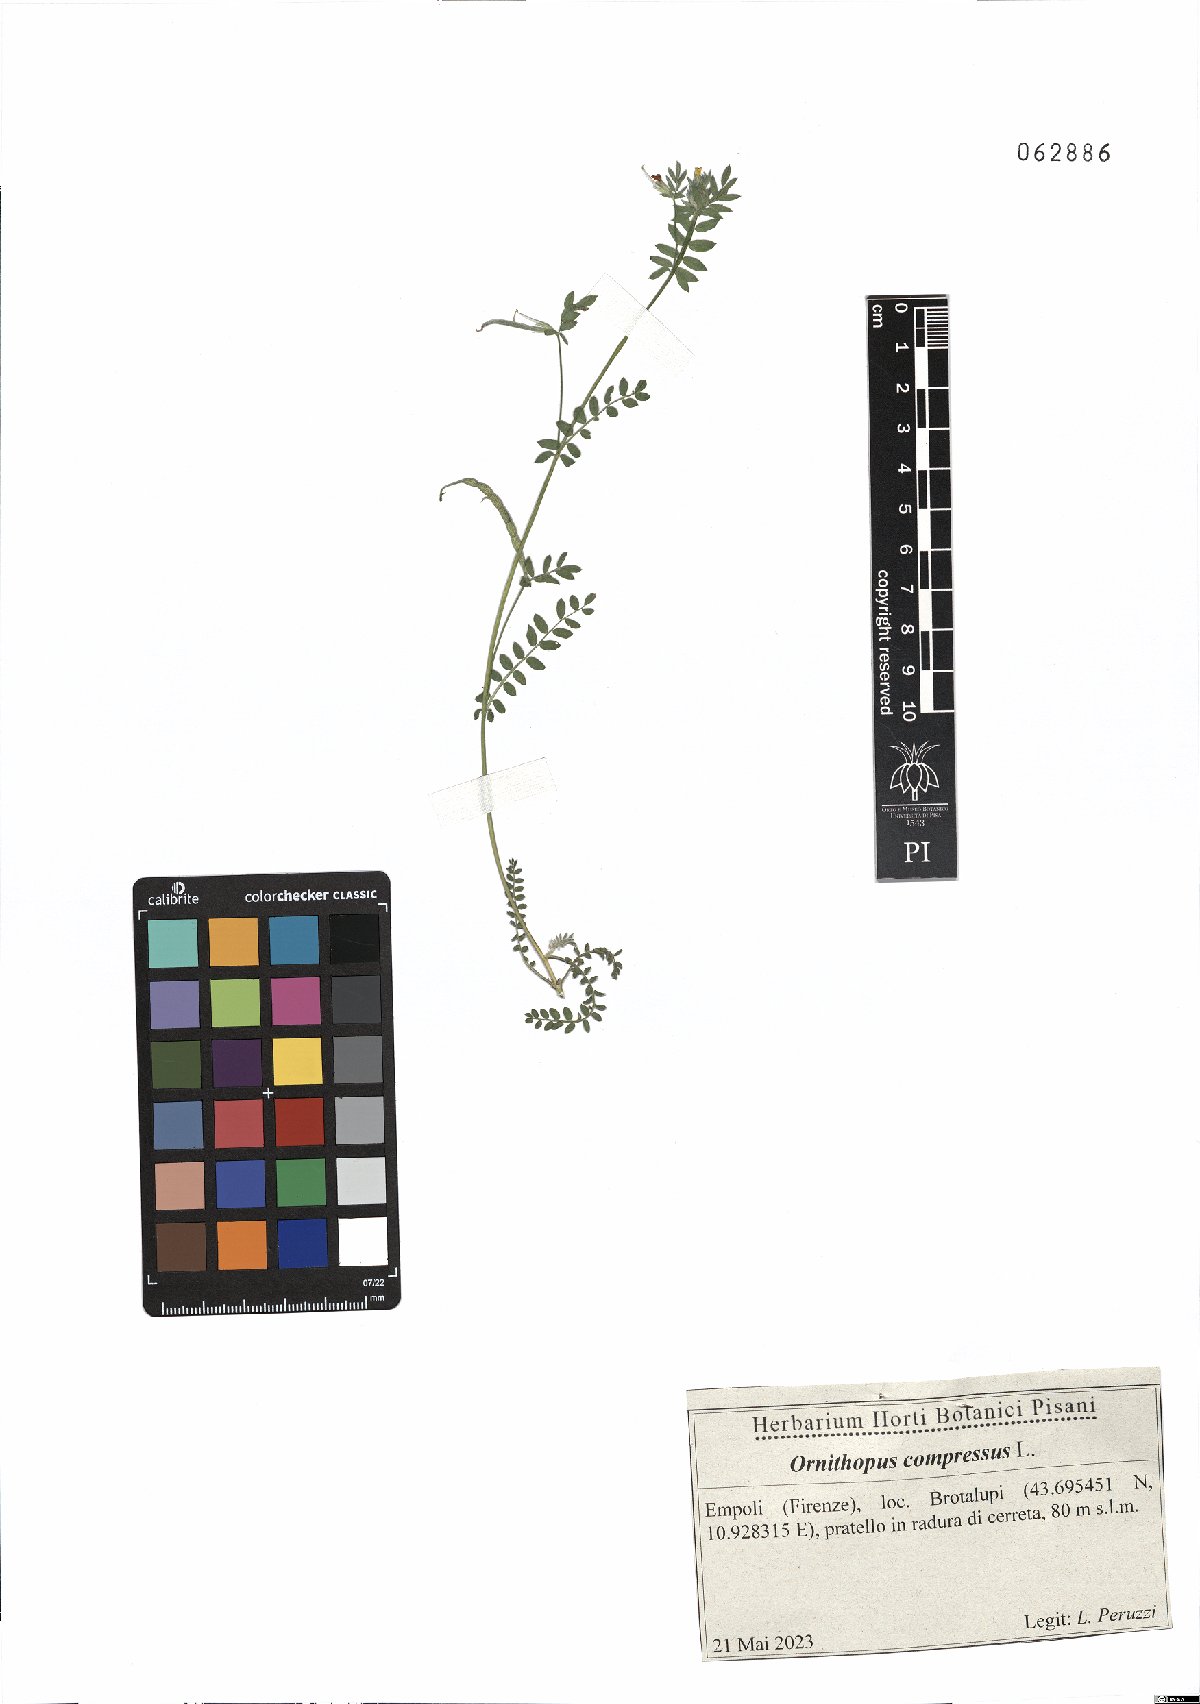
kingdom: Plantae
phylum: Tracheophyta
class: Magnoliopsida
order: Fabales
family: Fabaceae
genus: Ornithopus
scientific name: Ornithopus compressus
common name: Yellow serradella
